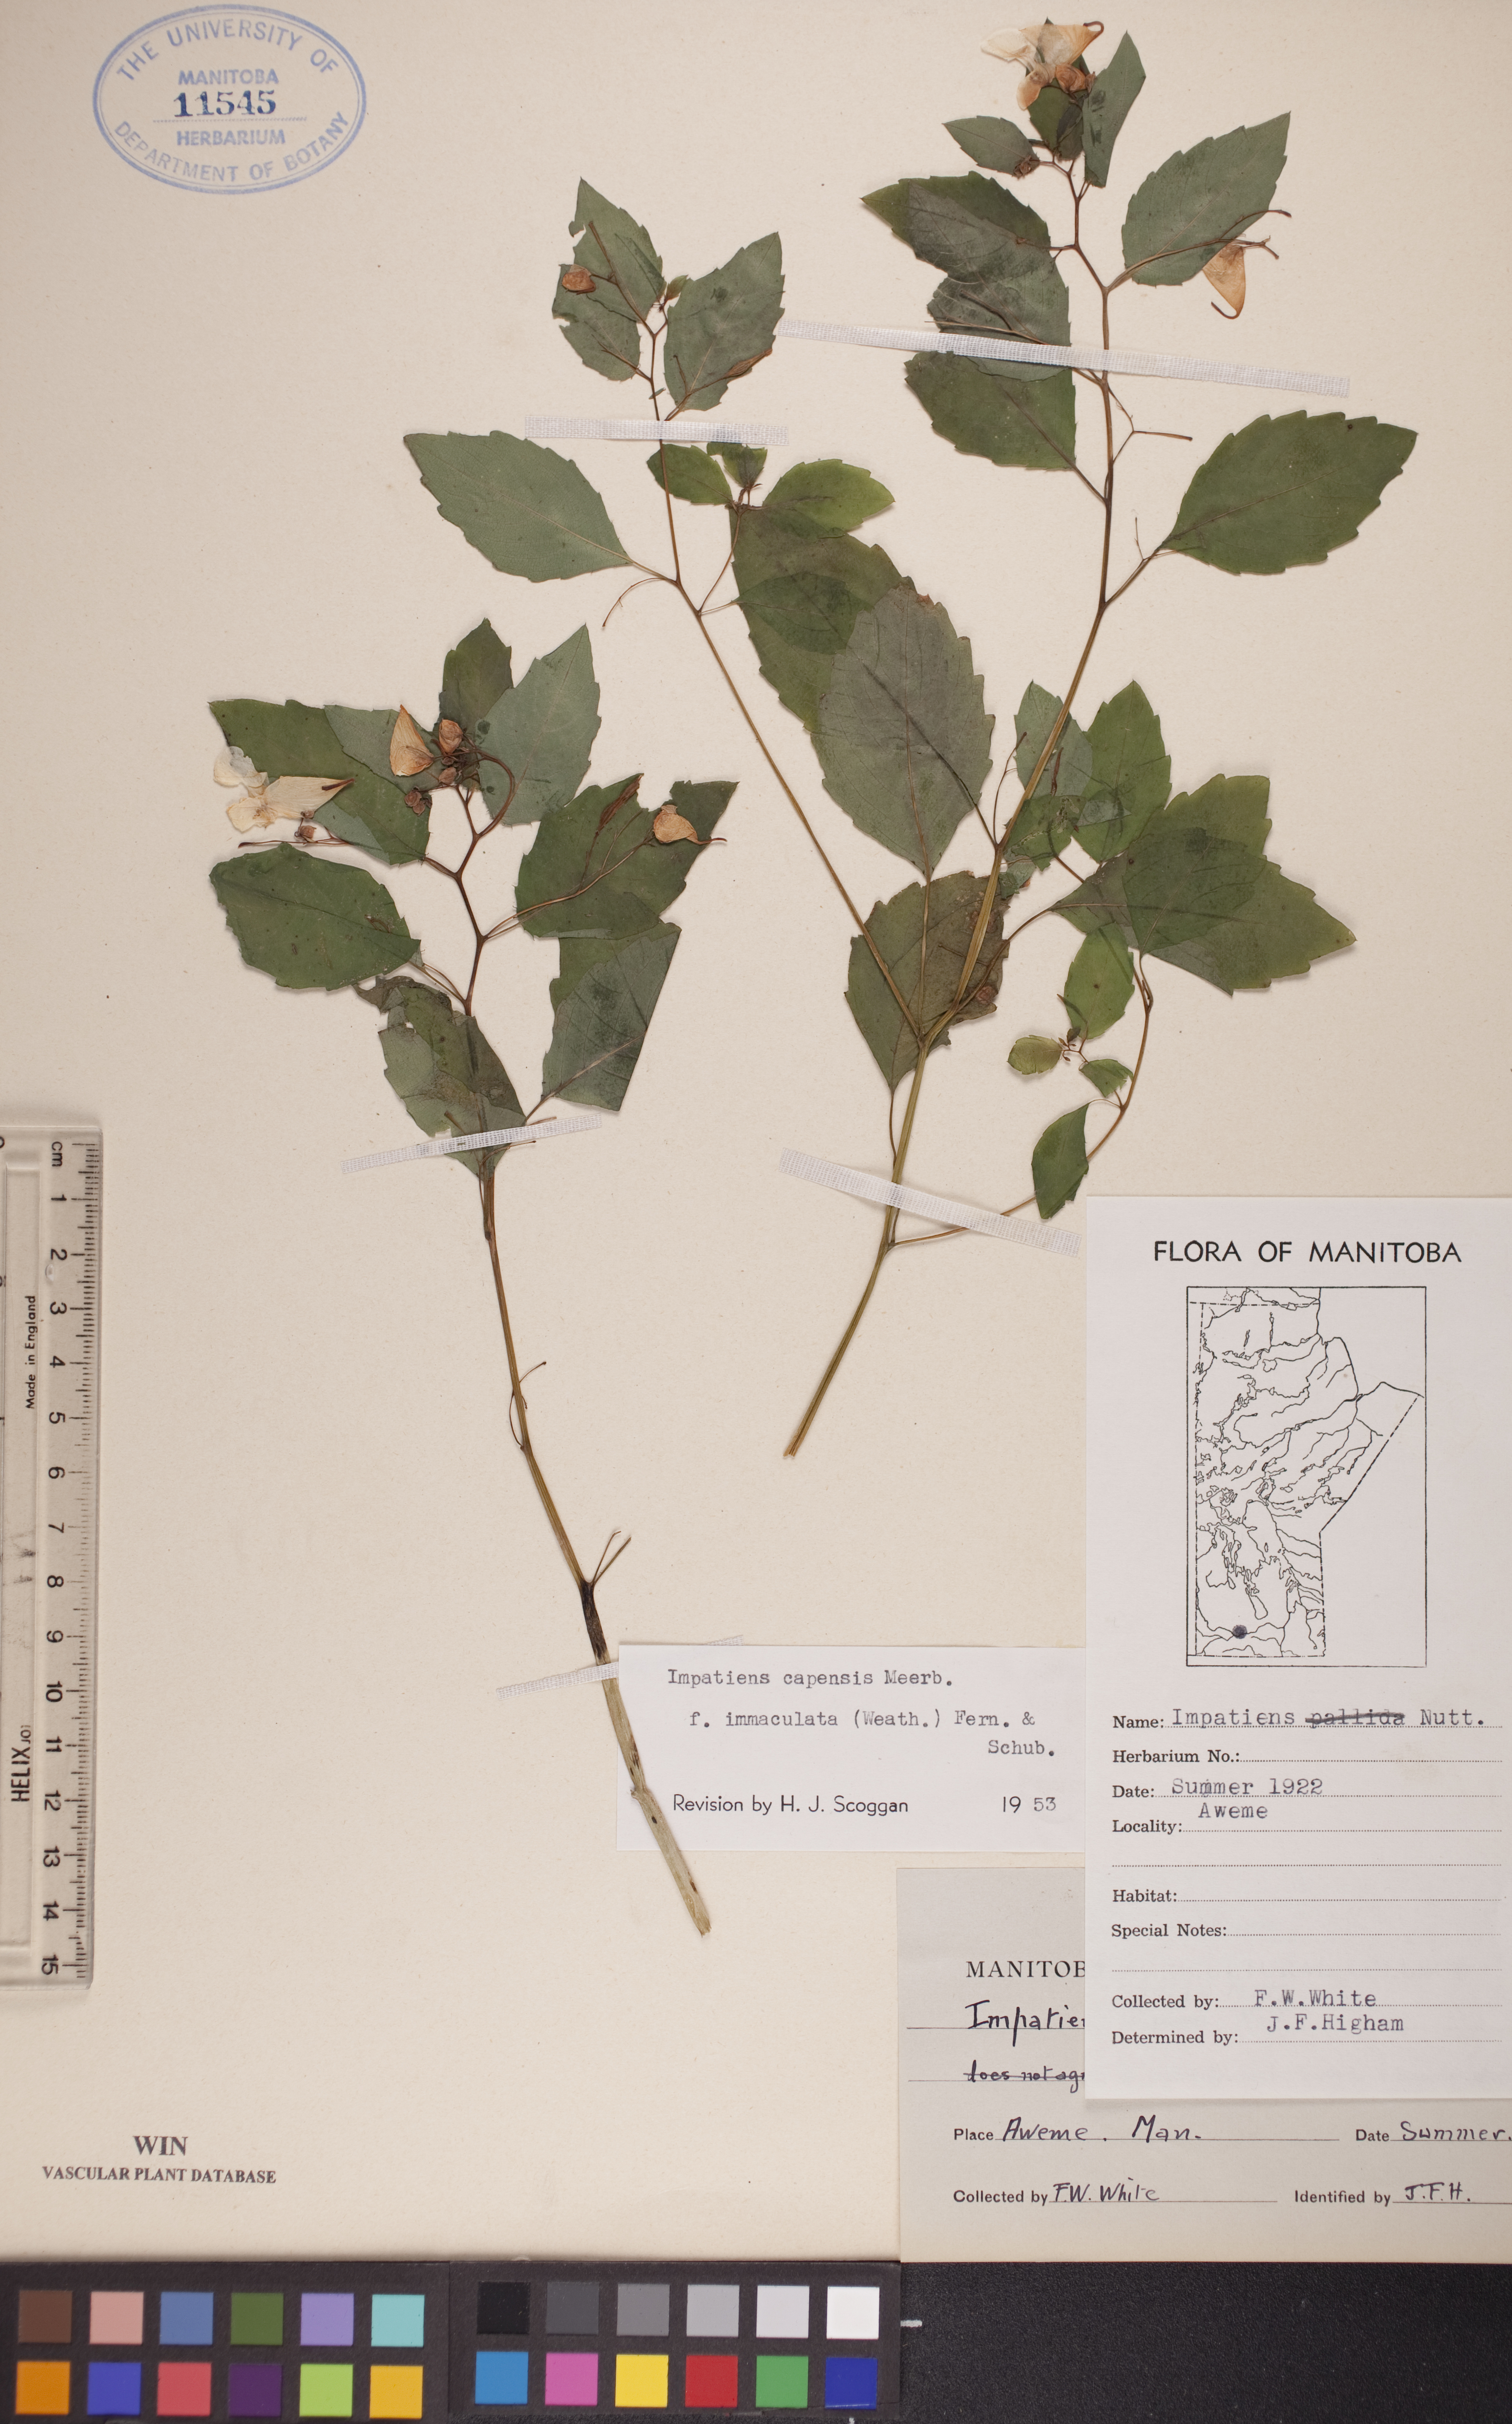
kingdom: Plantae
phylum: Tracheophyta
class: Magnoliopsida
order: Ericales
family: Balsaminaceae
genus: Impatiens
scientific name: Impatiens capensis
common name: Orange balsam
